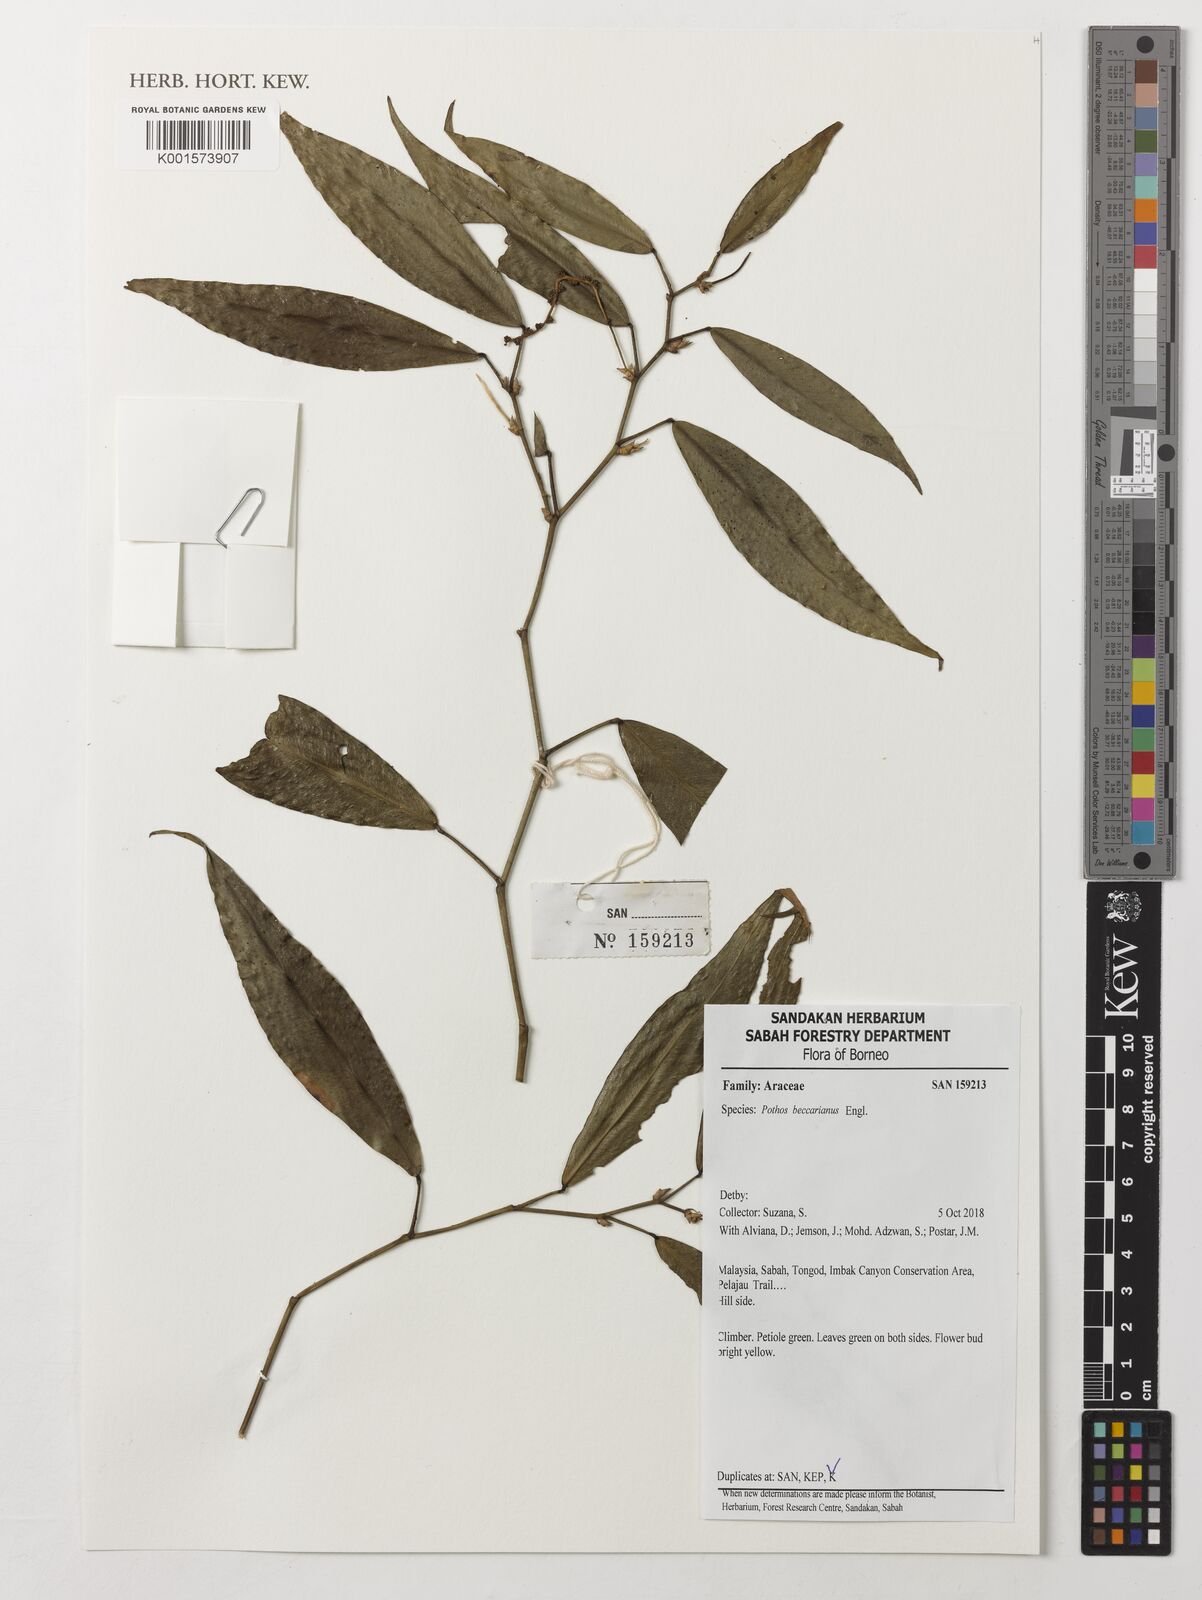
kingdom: Plantae
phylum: Tracheophyta
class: Liliopsida
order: Alismatales
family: Araceae
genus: Pothos
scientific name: Pothos beccarianus
